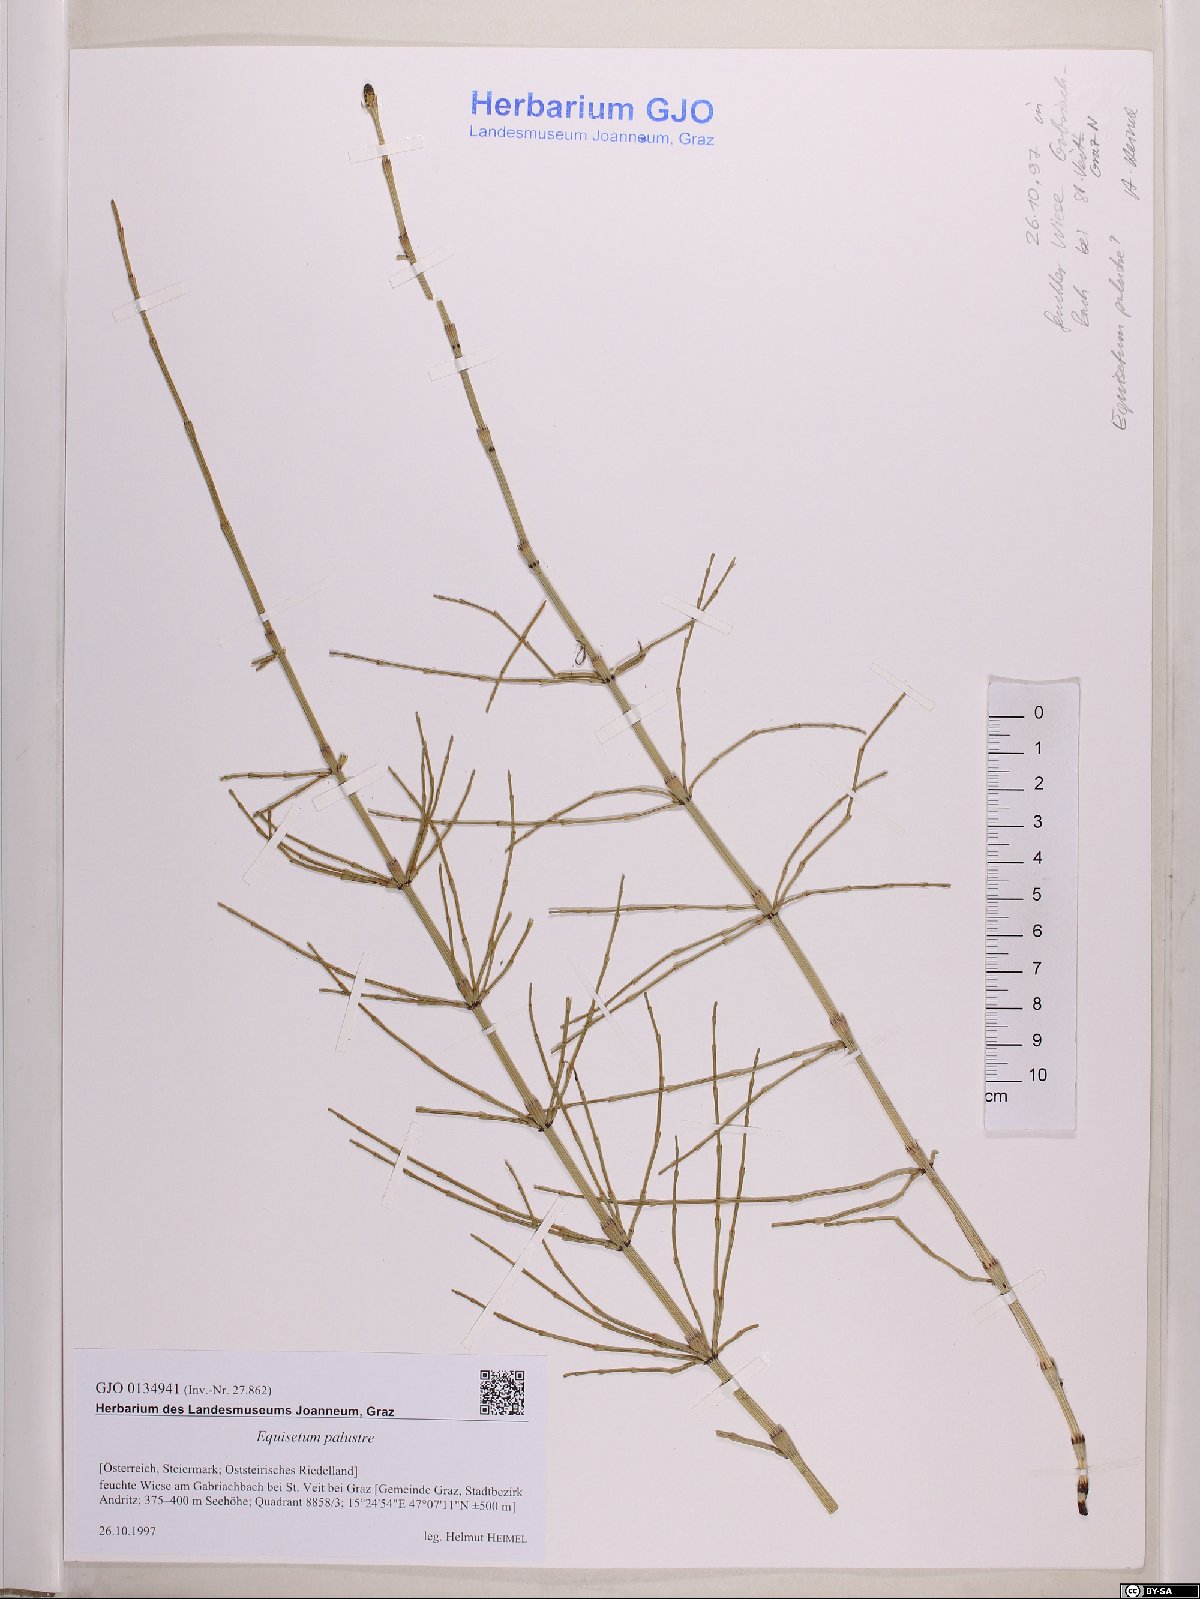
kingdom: Plantae
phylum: Tracheophyta
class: Polypodiopsida
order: Equisetales
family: Equisetaceae
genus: Equisetum
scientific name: Equisetum palustre
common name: Marsh horsetail
